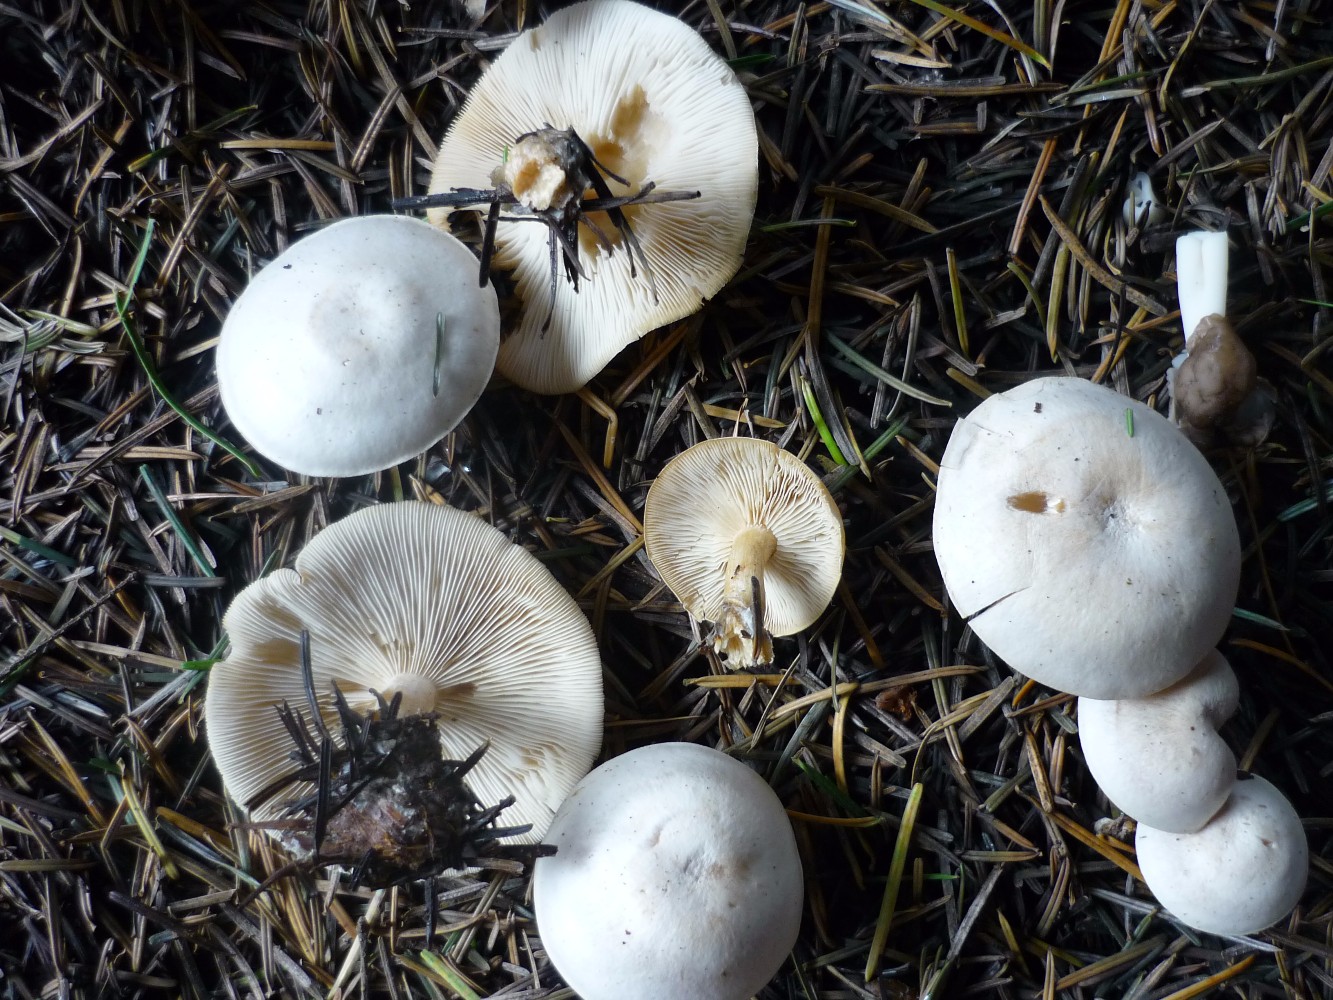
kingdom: Fungi
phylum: Basidiomycota
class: Agaricomycetes
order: Agaricales
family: Tricholomataceae
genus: Clitocybe
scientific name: Clitocybe phyllophila
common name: løv-tragthat
